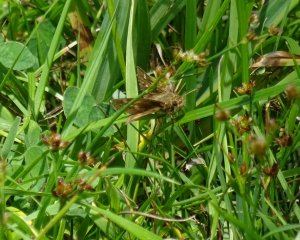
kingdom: Animalia
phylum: Arthropoda
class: Insecta
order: Lepidoptera
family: Hesperiidae
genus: Polites
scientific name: Polites egeremet
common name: Northern Broken-Dash
